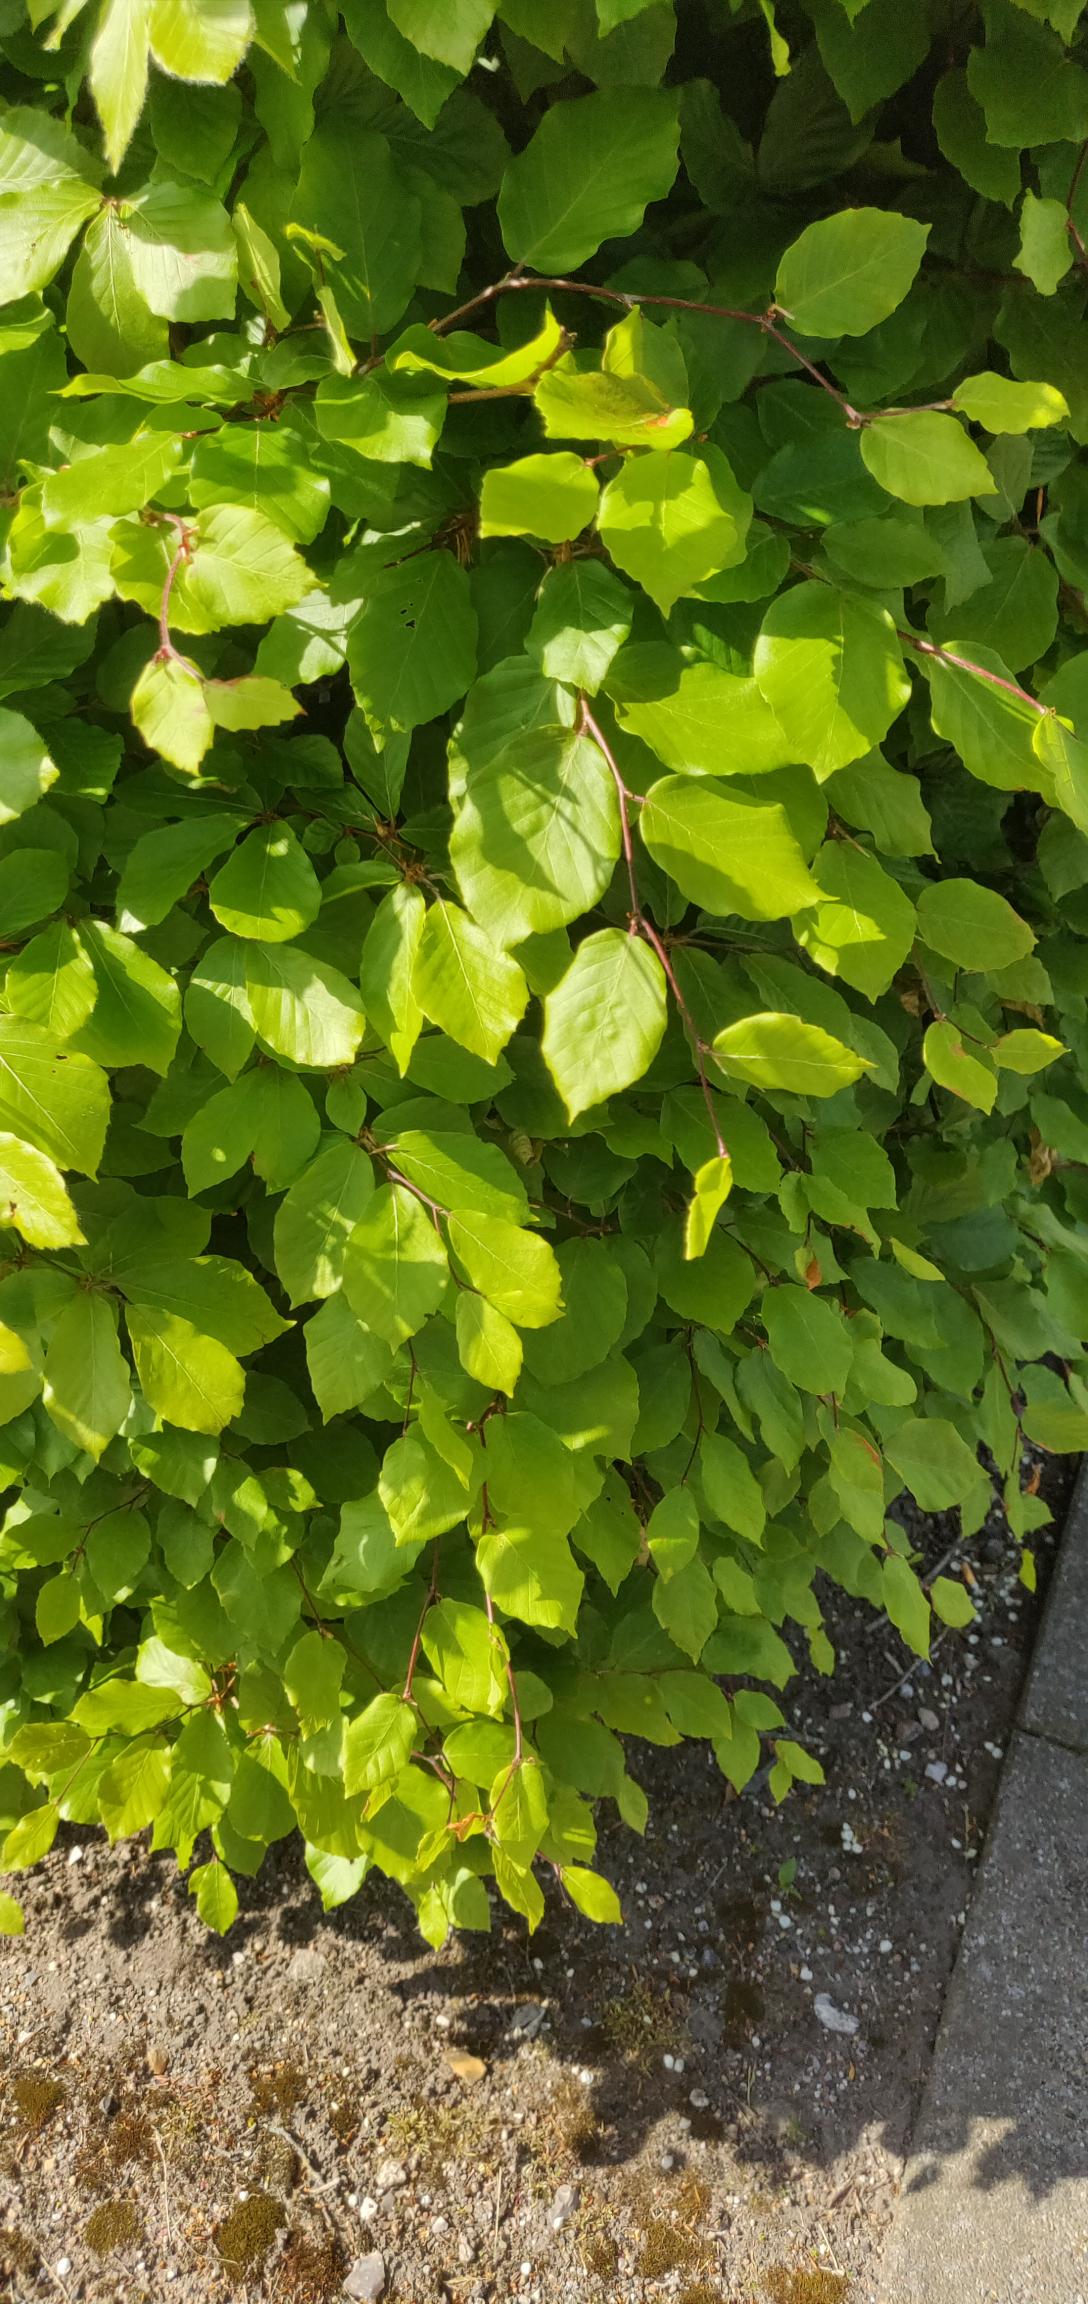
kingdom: Plantae
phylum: Tracheophyta
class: Magnoliopsida
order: Fagales
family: Fagaceae
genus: Fagus
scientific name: Fagus sylvatica
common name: Bøg
